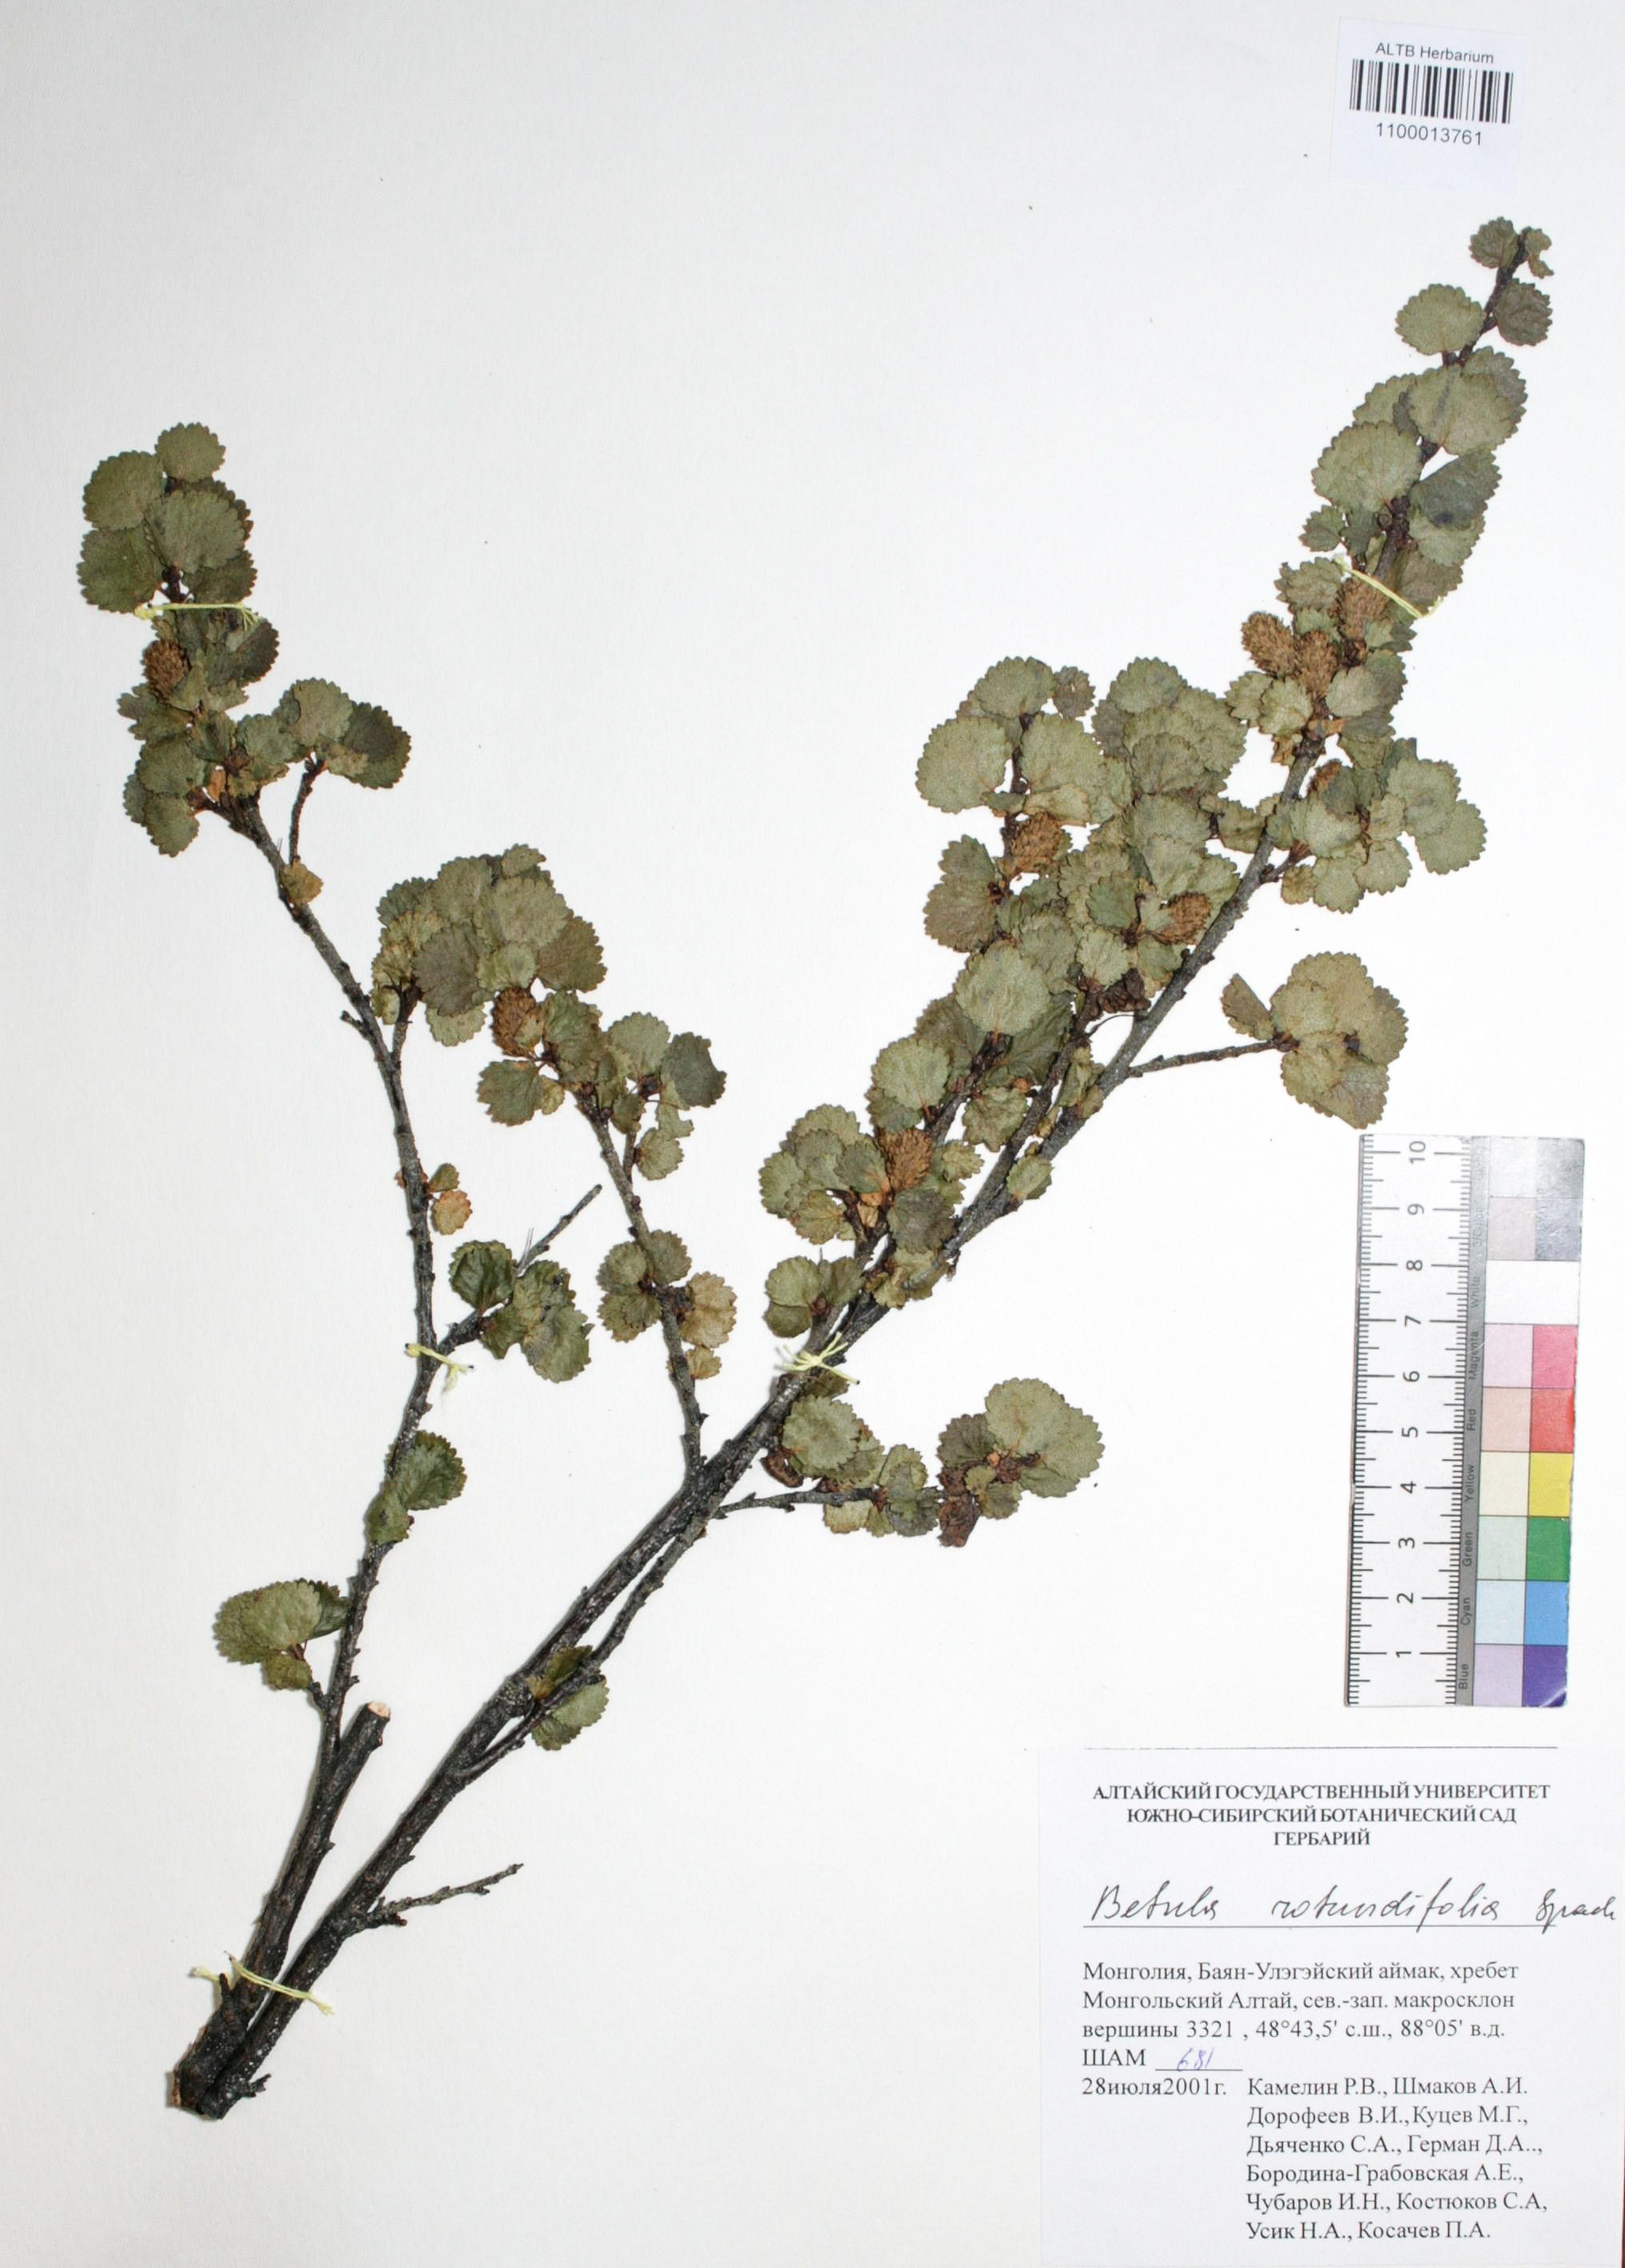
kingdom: Plantae
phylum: Tracheophyta
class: Magnoliopsida
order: Fagales
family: Betulaceae
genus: Betula
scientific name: Betula glandulosa
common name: Dwarf birch
